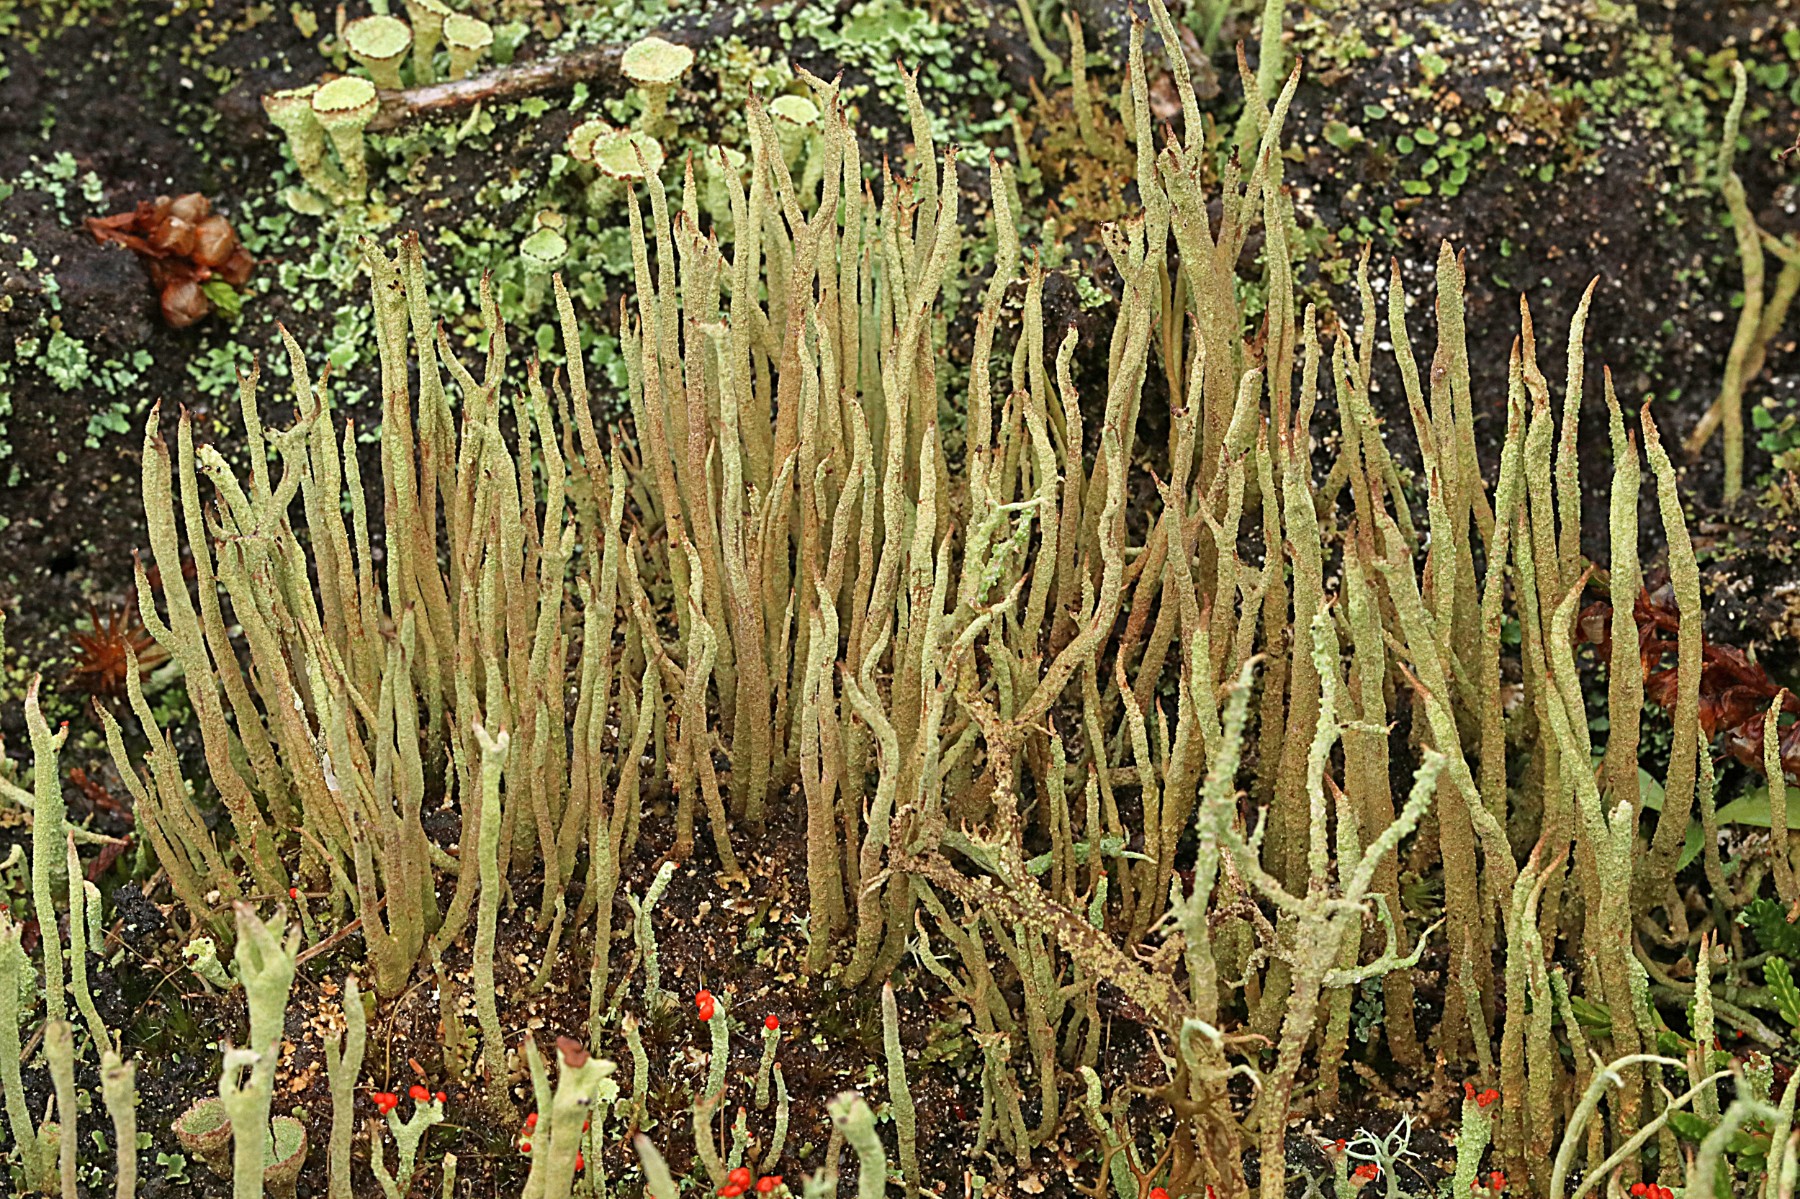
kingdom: Fungi
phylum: Ascomycota
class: Lecanoromycetes
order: Lecanorales
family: Cladoniaceae
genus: Cladonia
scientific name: Cladonia cornuta
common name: syl-bægerlav
